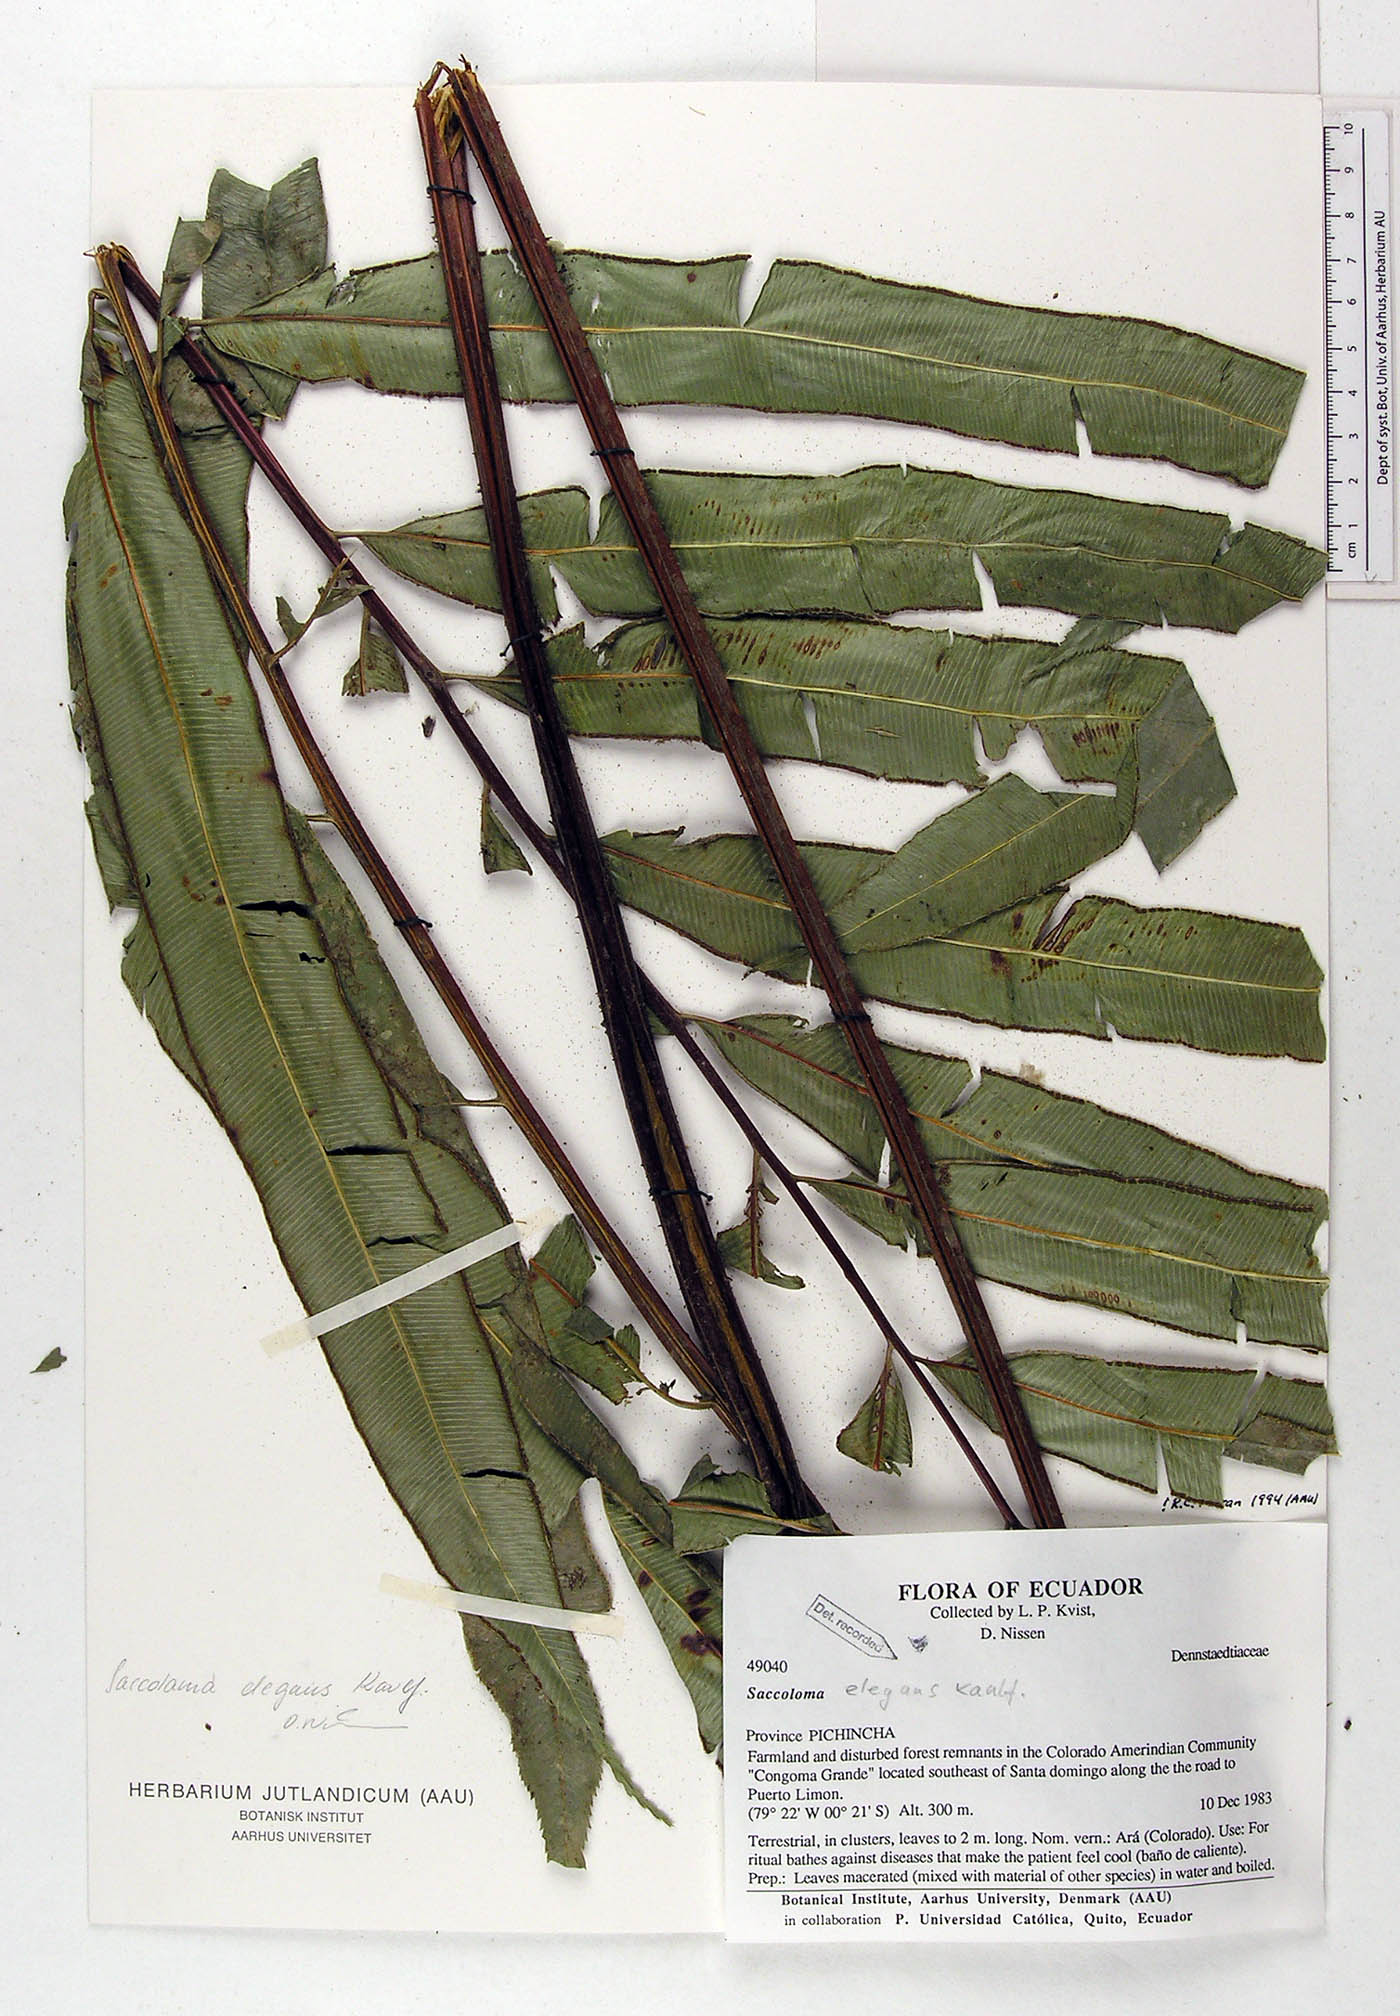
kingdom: Plantae
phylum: Tracheophyta
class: Polypodiopsida
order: Polypodiales
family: Saccolomataceae
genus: Saccoloma
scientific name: Saccoloma elegans
